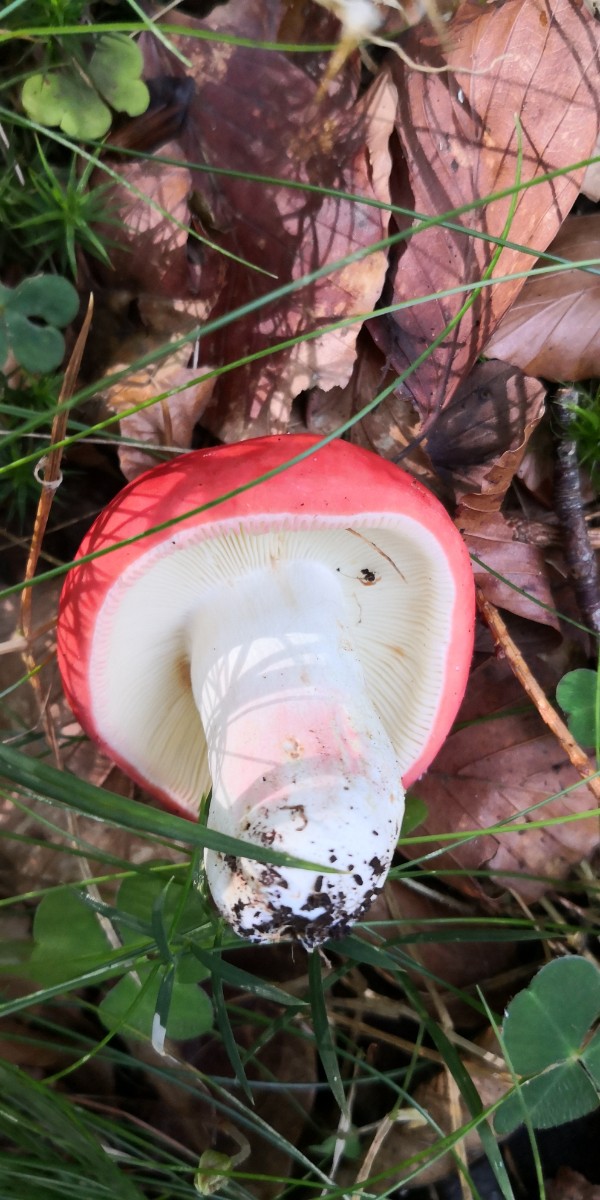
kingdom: Fungi
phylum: Basidiomycota
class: Agaricomycetes
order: Russulales
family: Russulaceae
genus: Russula
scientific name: Russula rosea
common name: fastkødet skørhat
